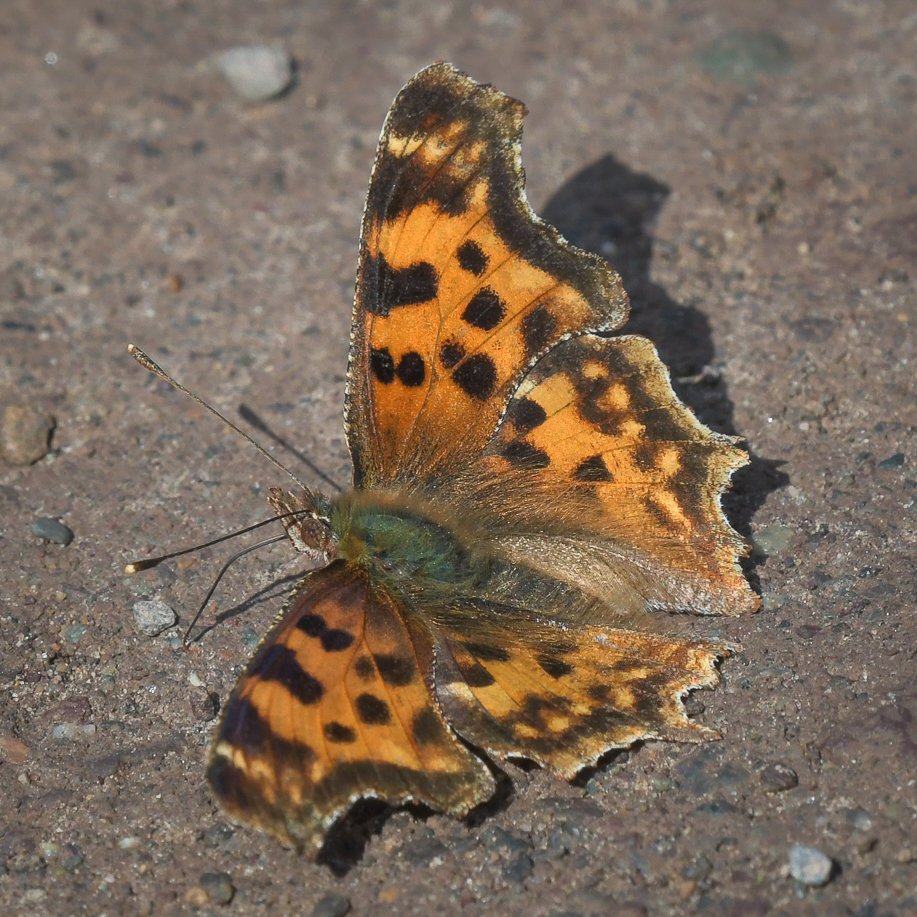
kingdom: Animalia
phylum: Arthropoda
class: Insecta
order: Lepidoptera
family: Nymphalidae
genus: Polygonia
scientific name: Polygonia satyrus
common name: Satyr Comma
